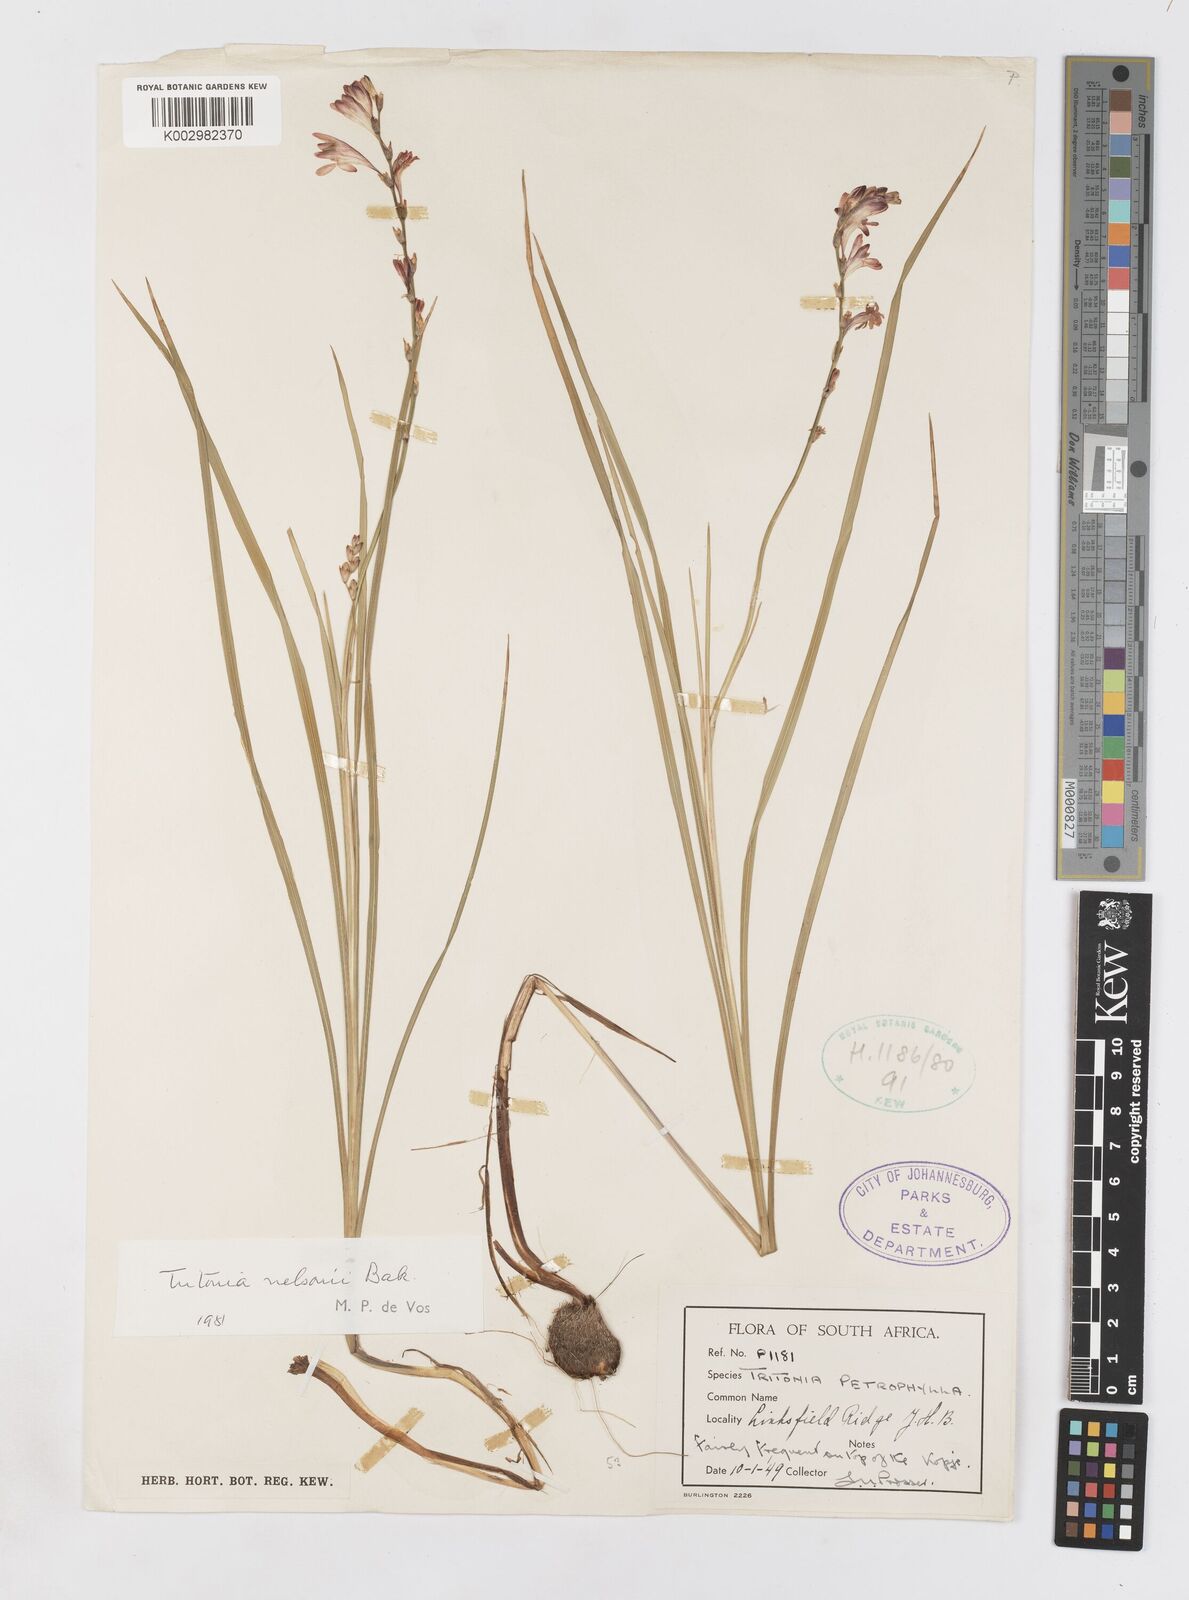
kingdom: Plantae
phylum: Tracheophyta
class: Liliopsida
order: Asparagales
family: Iridaceae
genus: Tritonia
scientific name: Tritonia nelsonii
